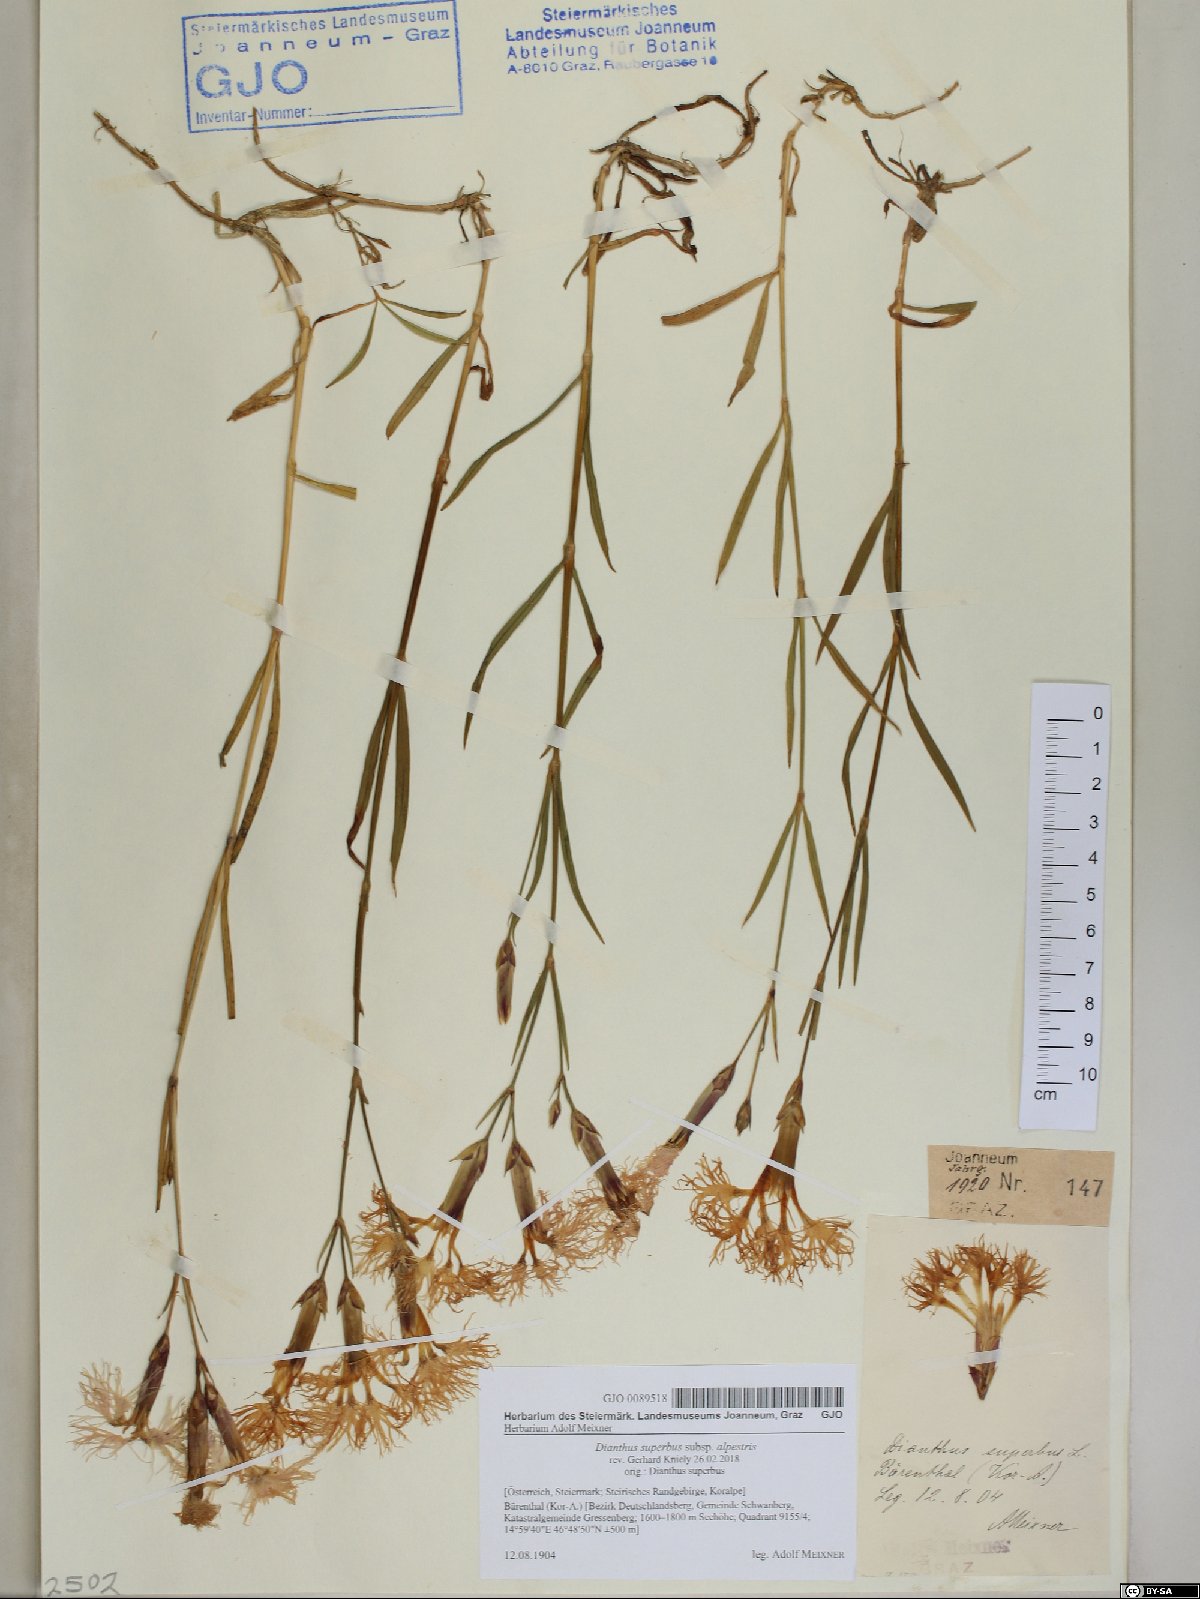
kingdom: Plantae
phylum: Tracheophyta
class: Magnoliopsida
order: Caryophyllales
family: Caryophyllaceae
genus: Dianthus
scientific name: Dianthus superbus
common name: Fringed pink
